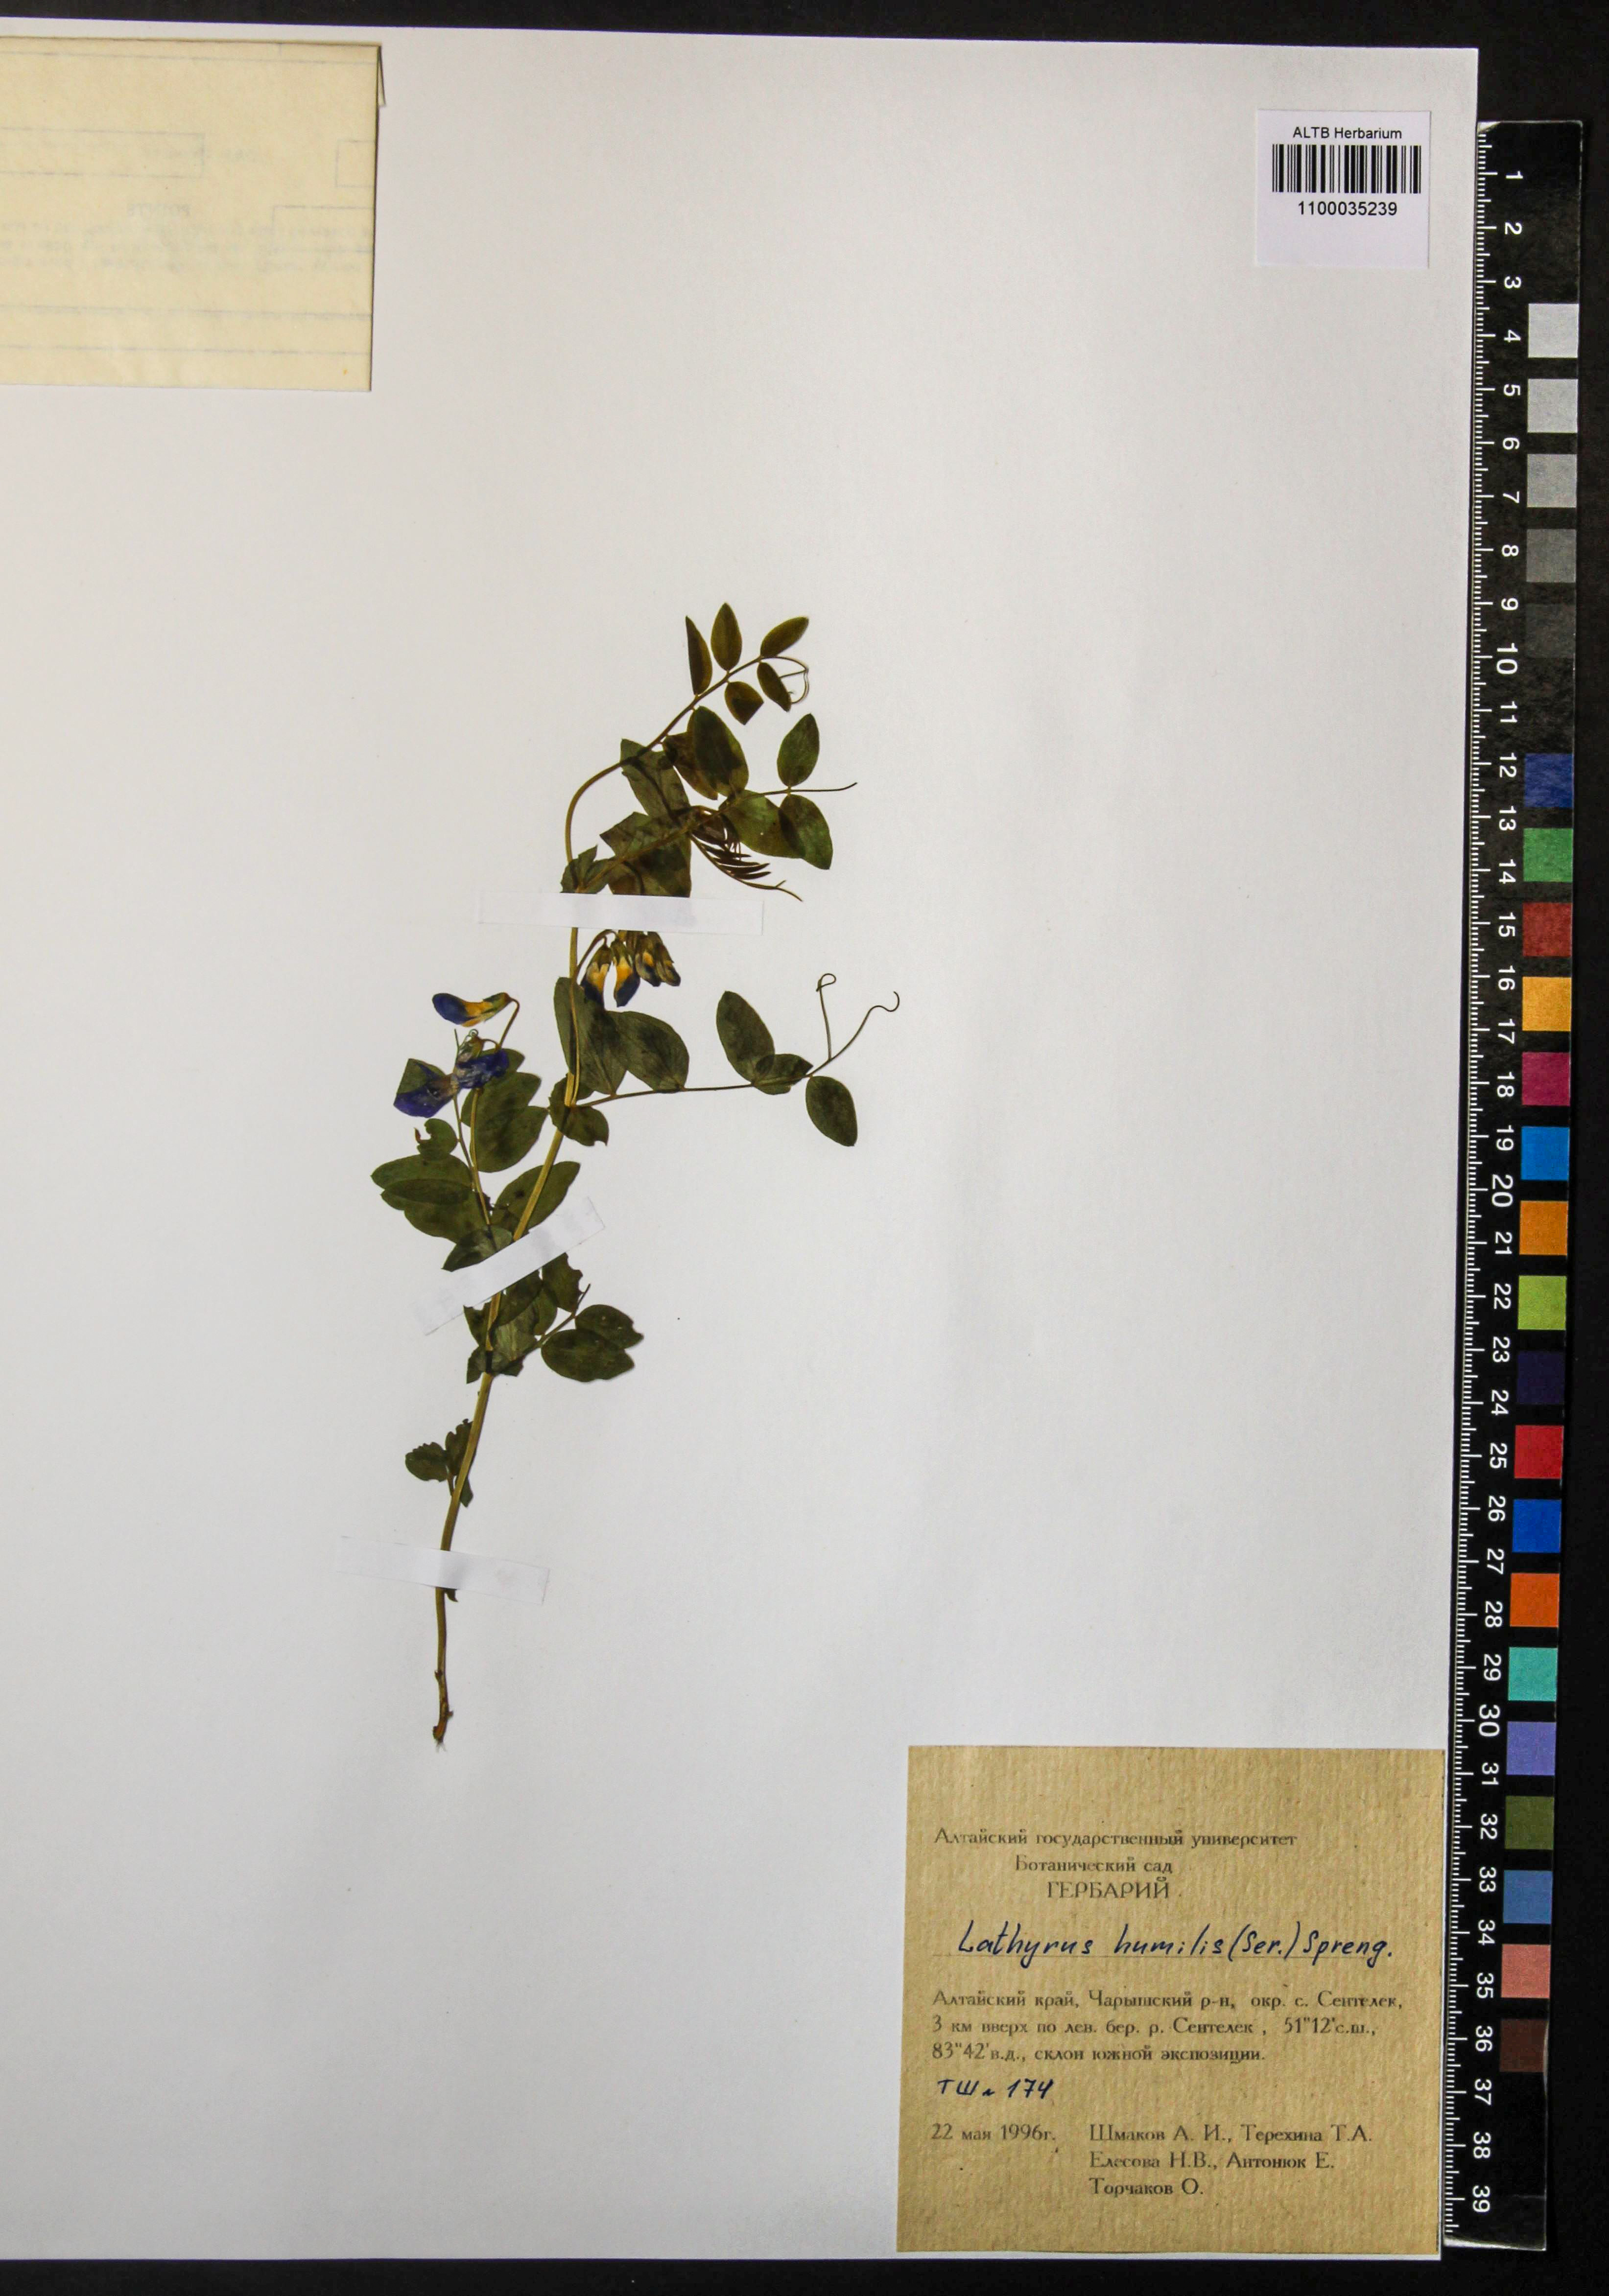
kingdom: Plantae
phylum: Tracheophyta
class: Magnoliopsida
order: Fabales
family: Fabaceae
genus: Lathyrus
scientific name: Lathyrus humilis
